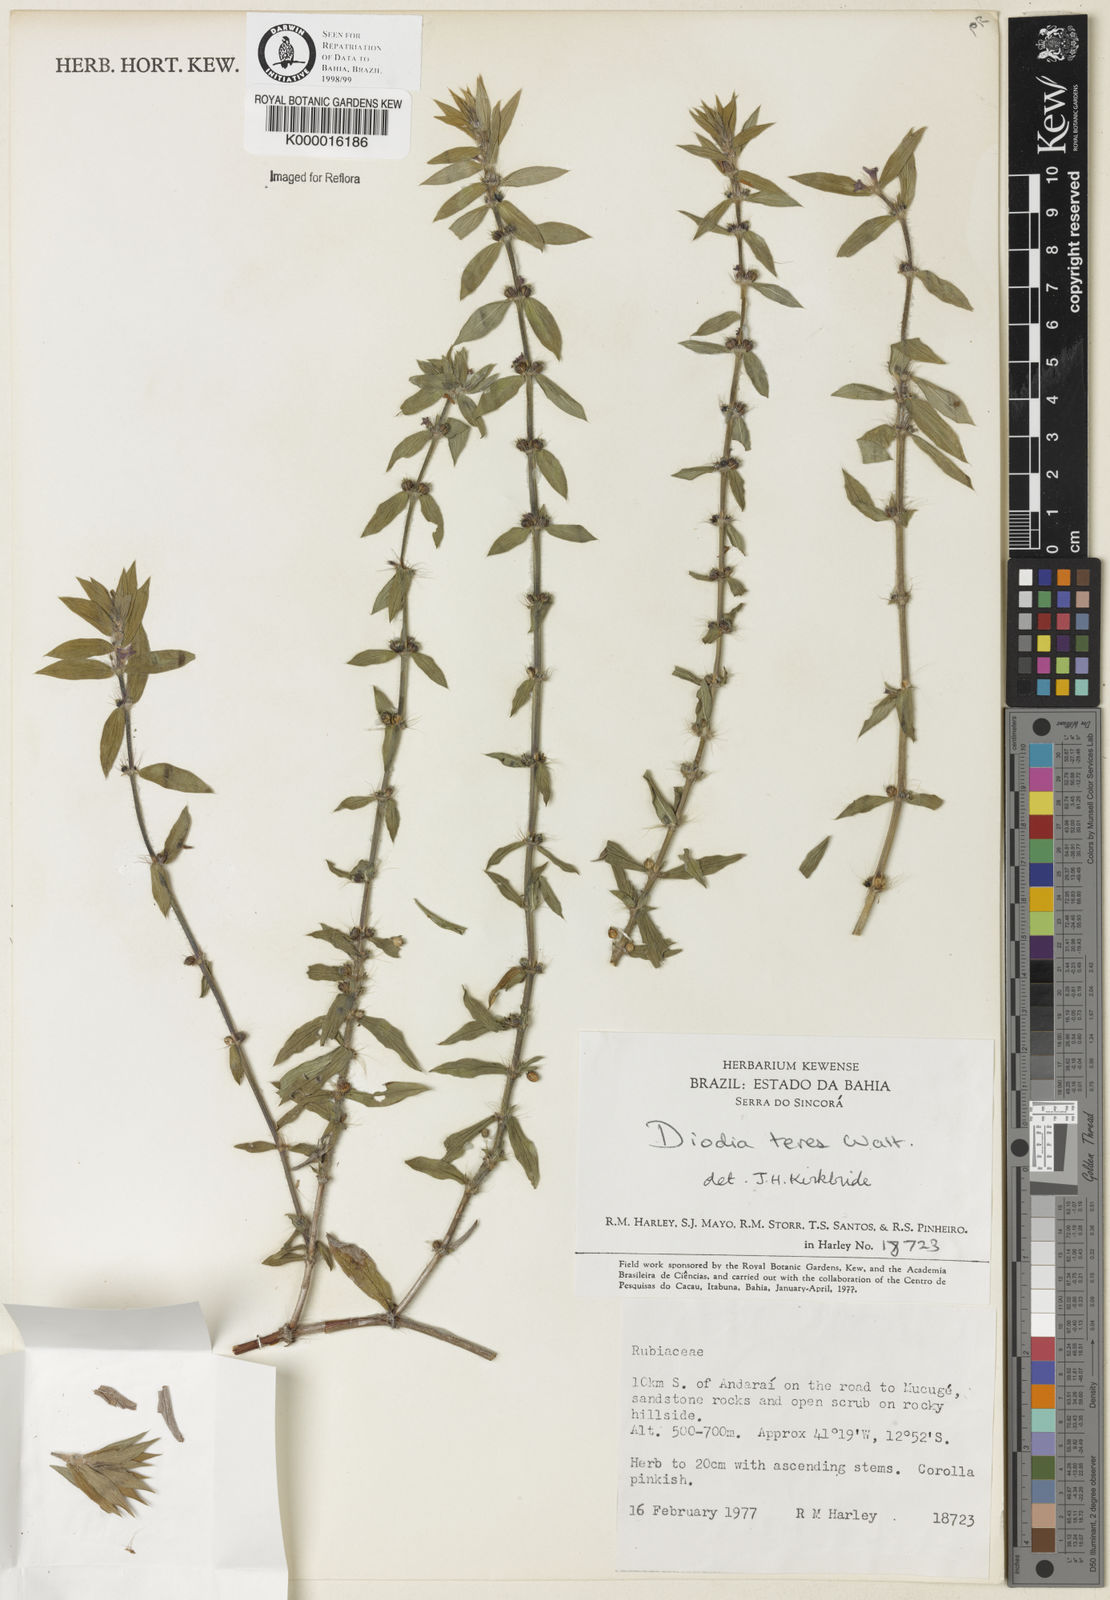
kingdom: Plantae
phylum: Tracheophyta
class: Magnoliopsida
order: Gentianales
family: Rubiaceae
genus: Hexasepalum
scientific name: Hexasepalum teres
